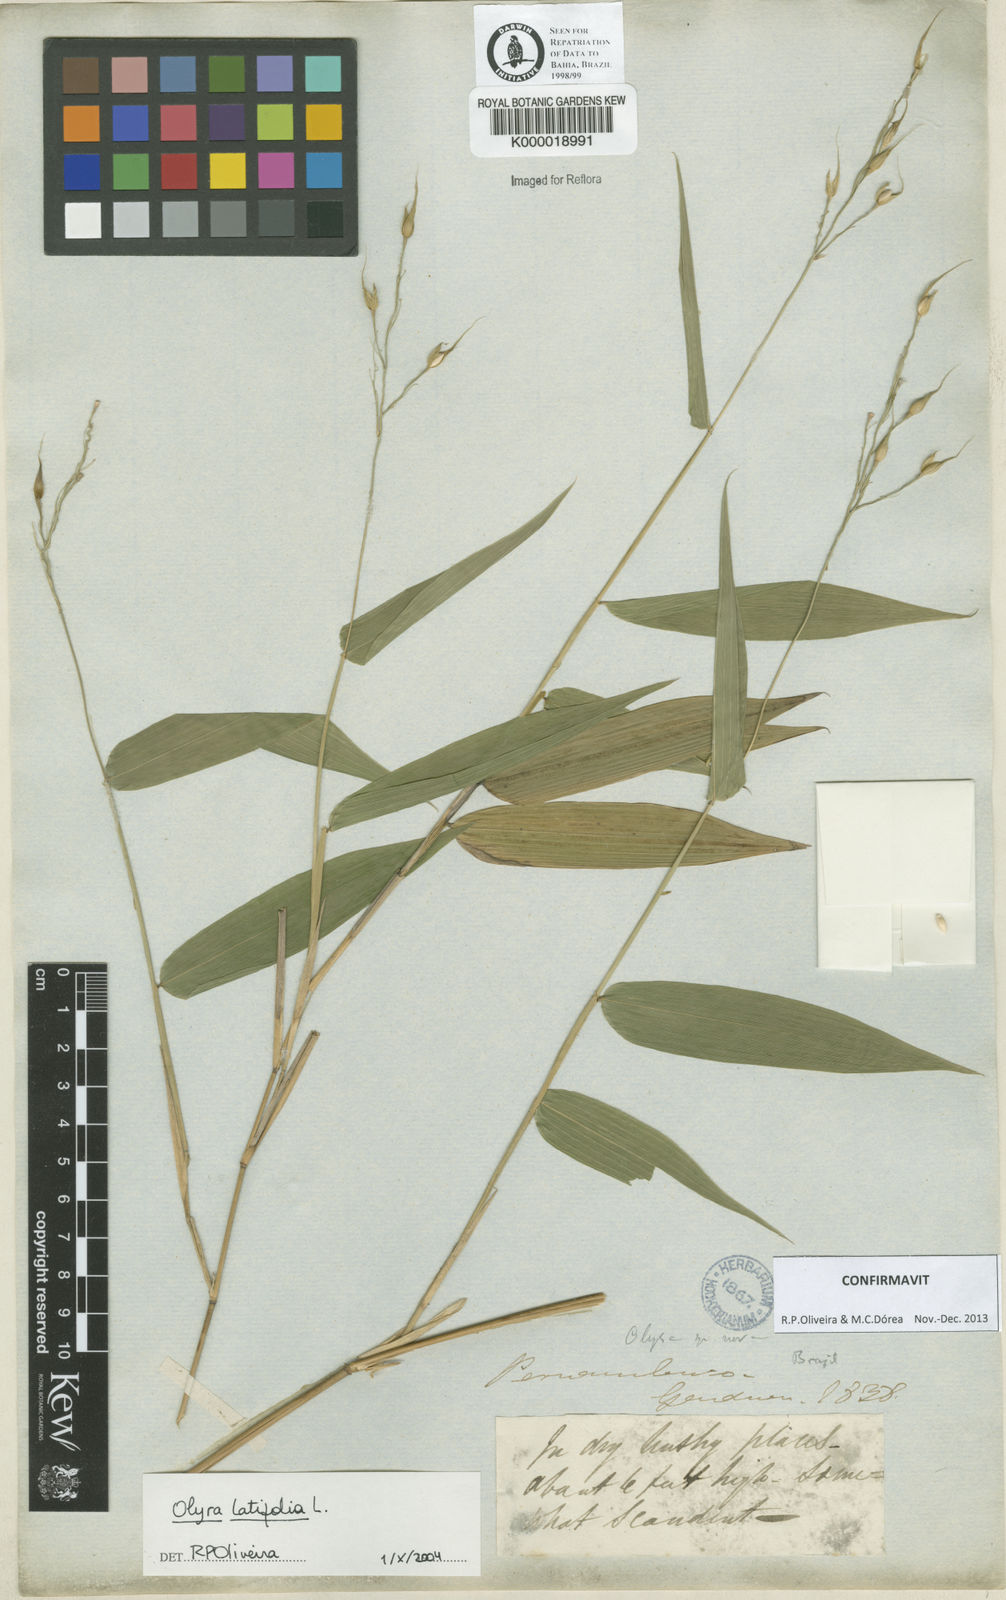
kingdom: Plantae
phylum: Tracheophyta
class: Liliopsida
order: Poales
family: Poaceae
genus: Olyra
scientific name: Olyra
